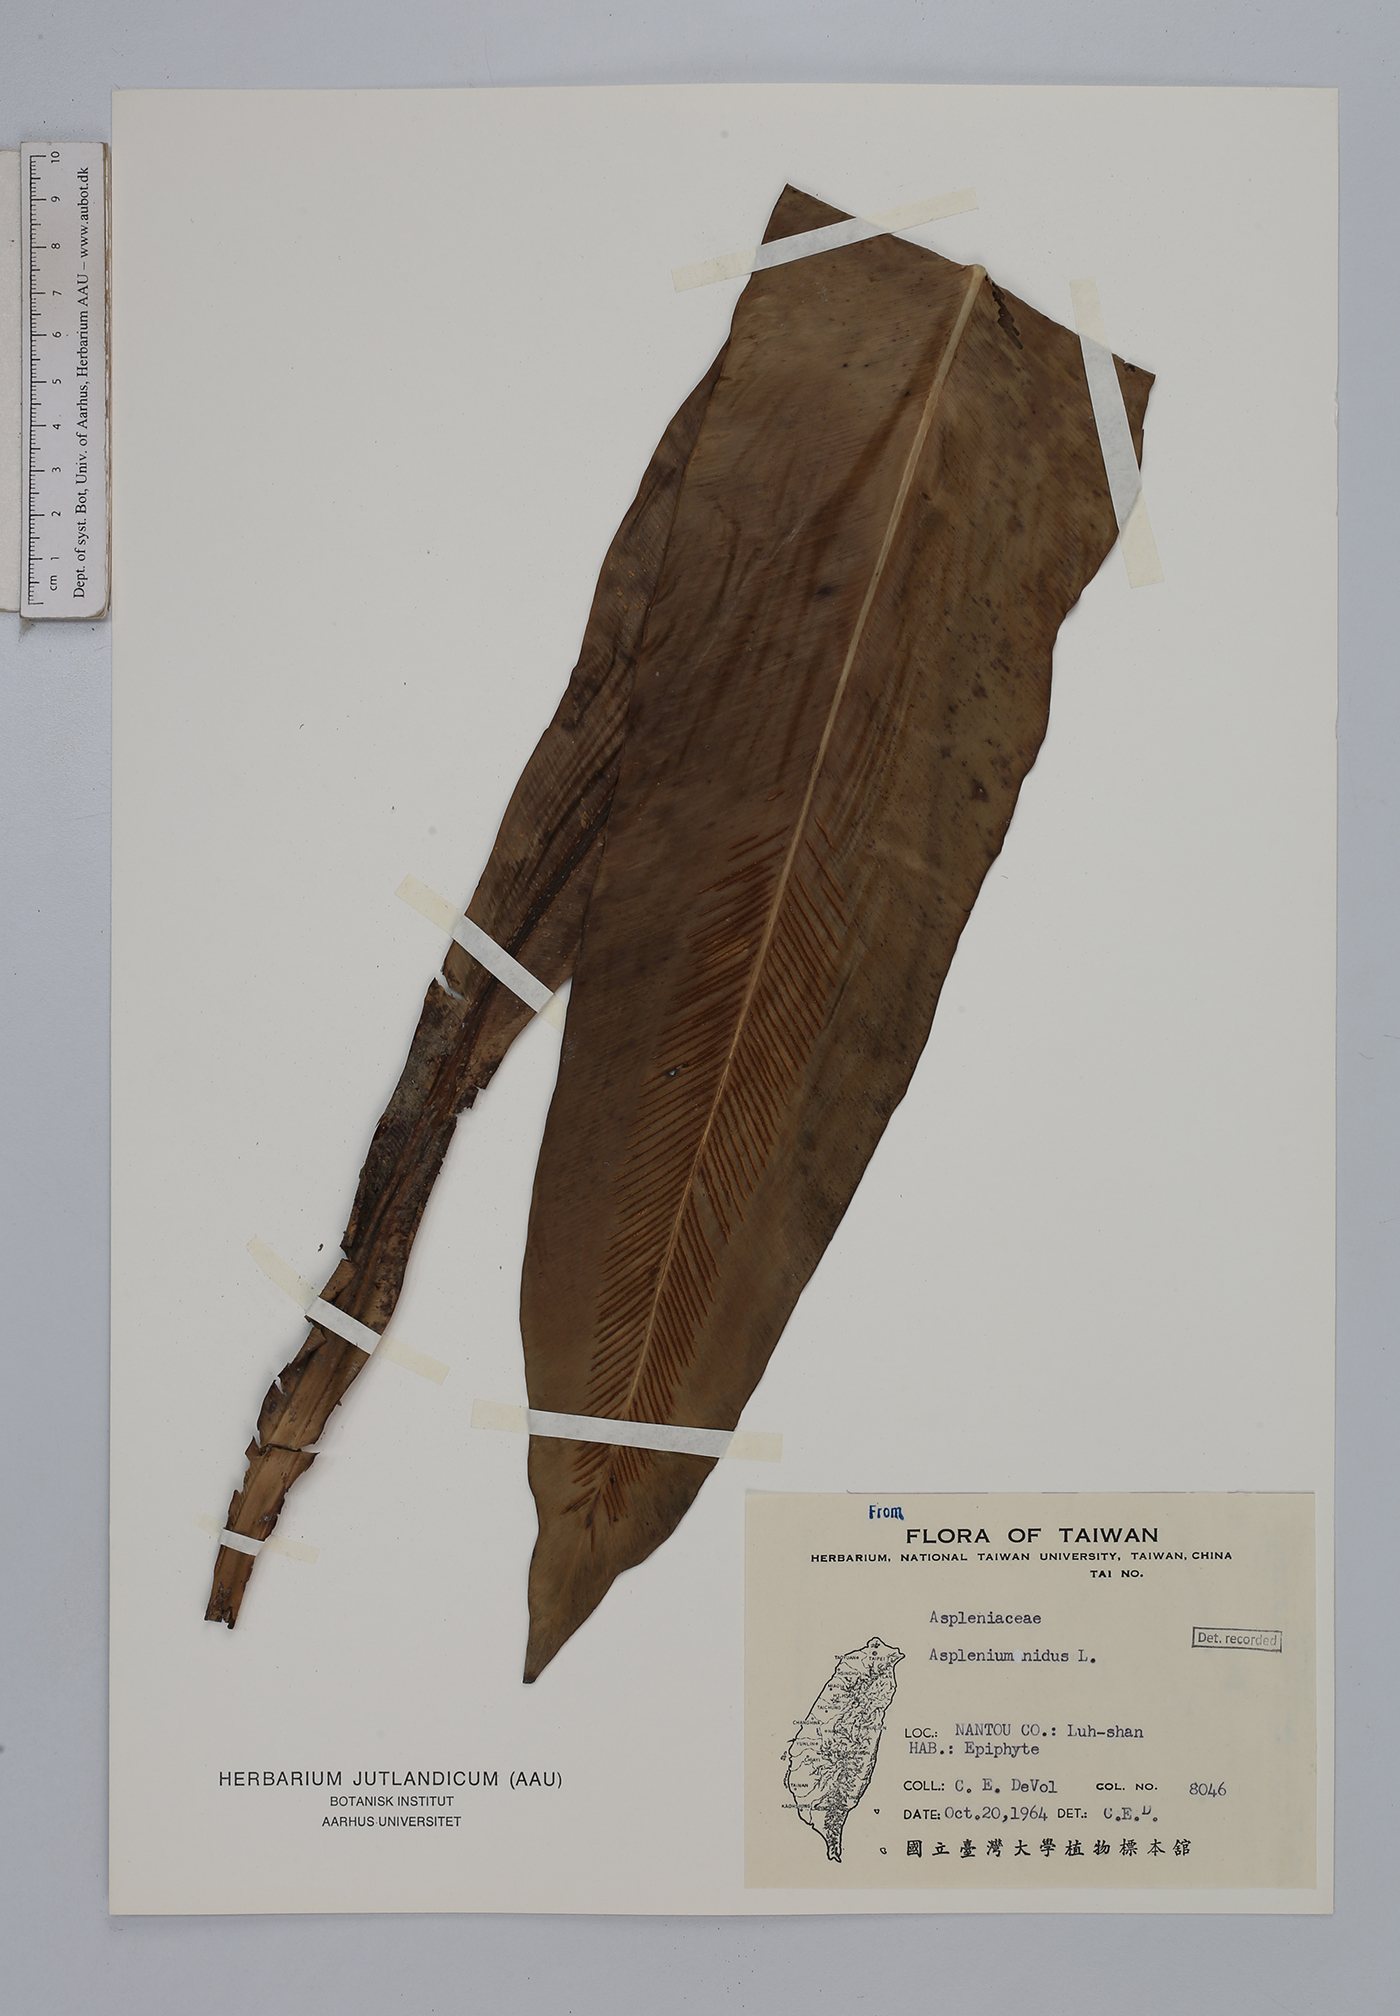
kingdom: Plantae
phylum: Tracheophyta
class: Polypodiopsida
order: Polypodiales
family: Aspleniaceae
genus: Asplenium
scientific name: Asplenium nidus
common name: Bird's-nest fern
